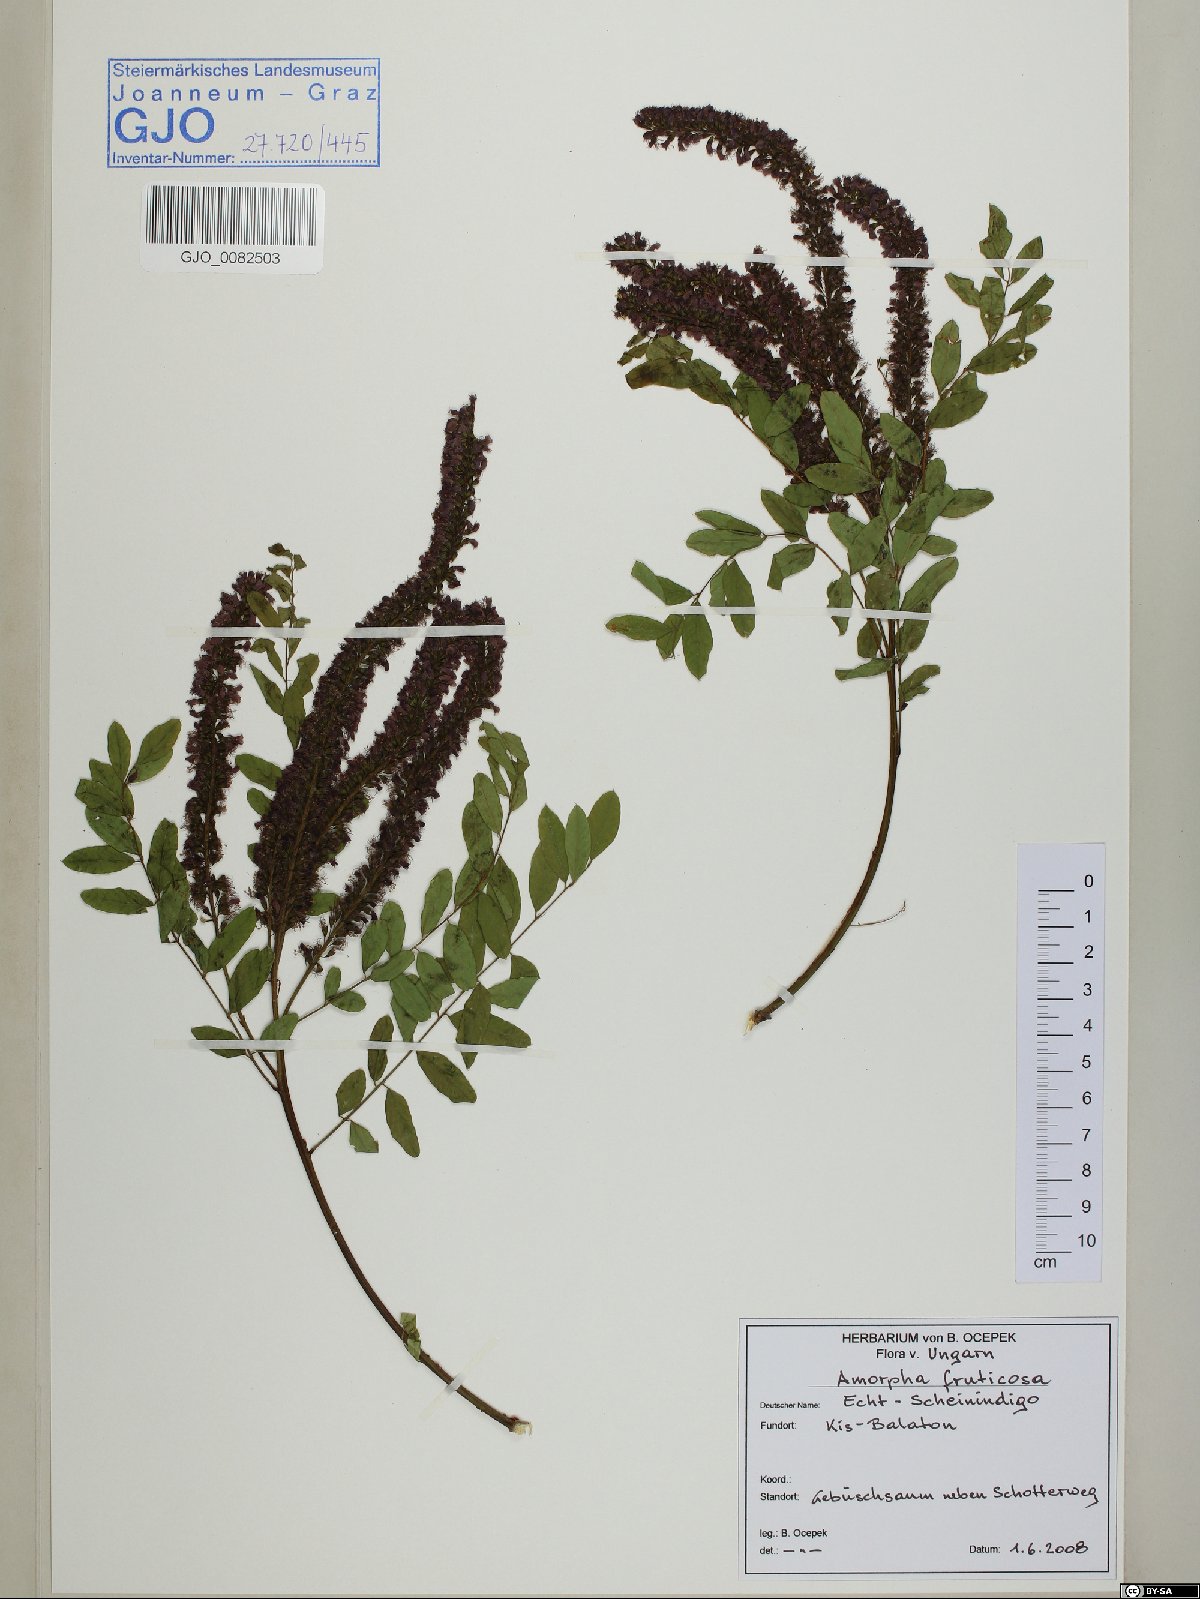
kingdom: Plantae
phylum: Tracheophyta
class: Magnoliopsida
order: Fabales
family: Fabaceae
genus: Amorpha
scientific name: Amorpha fruticosa
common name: False indigo
